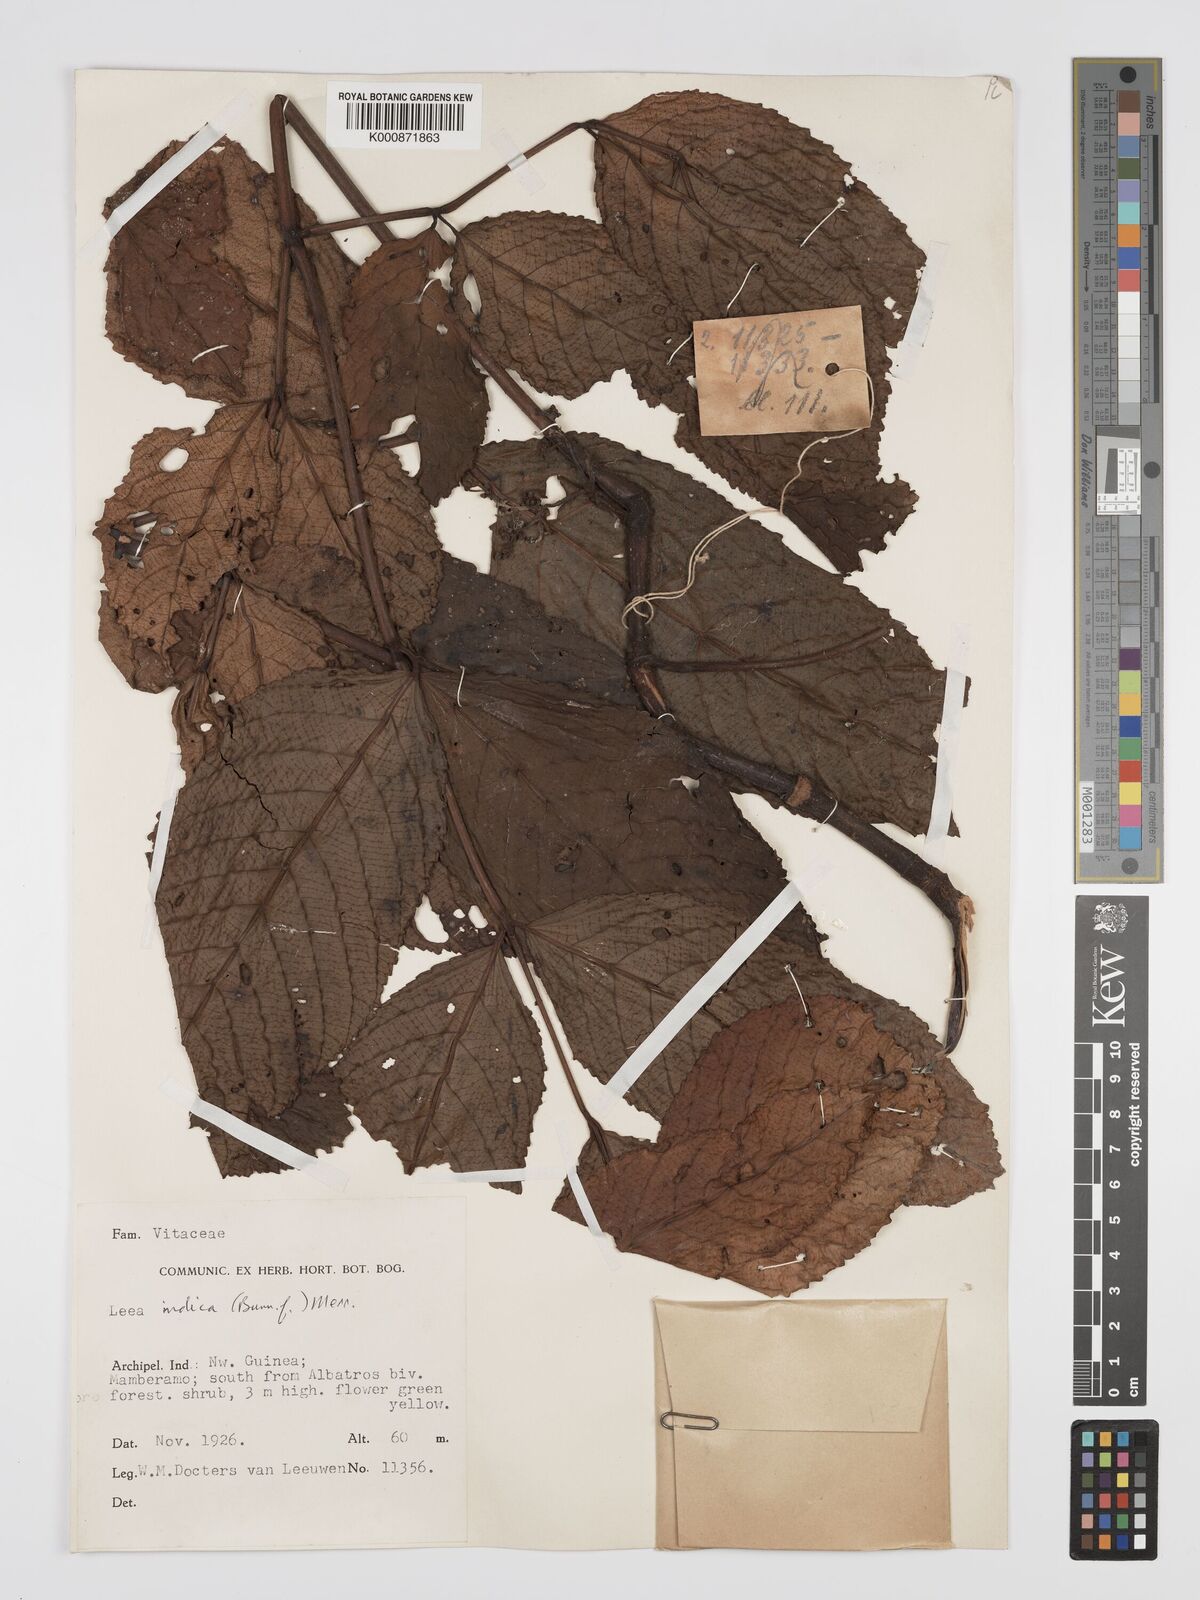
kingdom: Plantae
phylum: Tracheophyta
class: Magnoliopsida
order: Vitales
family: Vitaceae
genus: Leea
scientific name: Leea indica
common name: Bandicoot-berry
